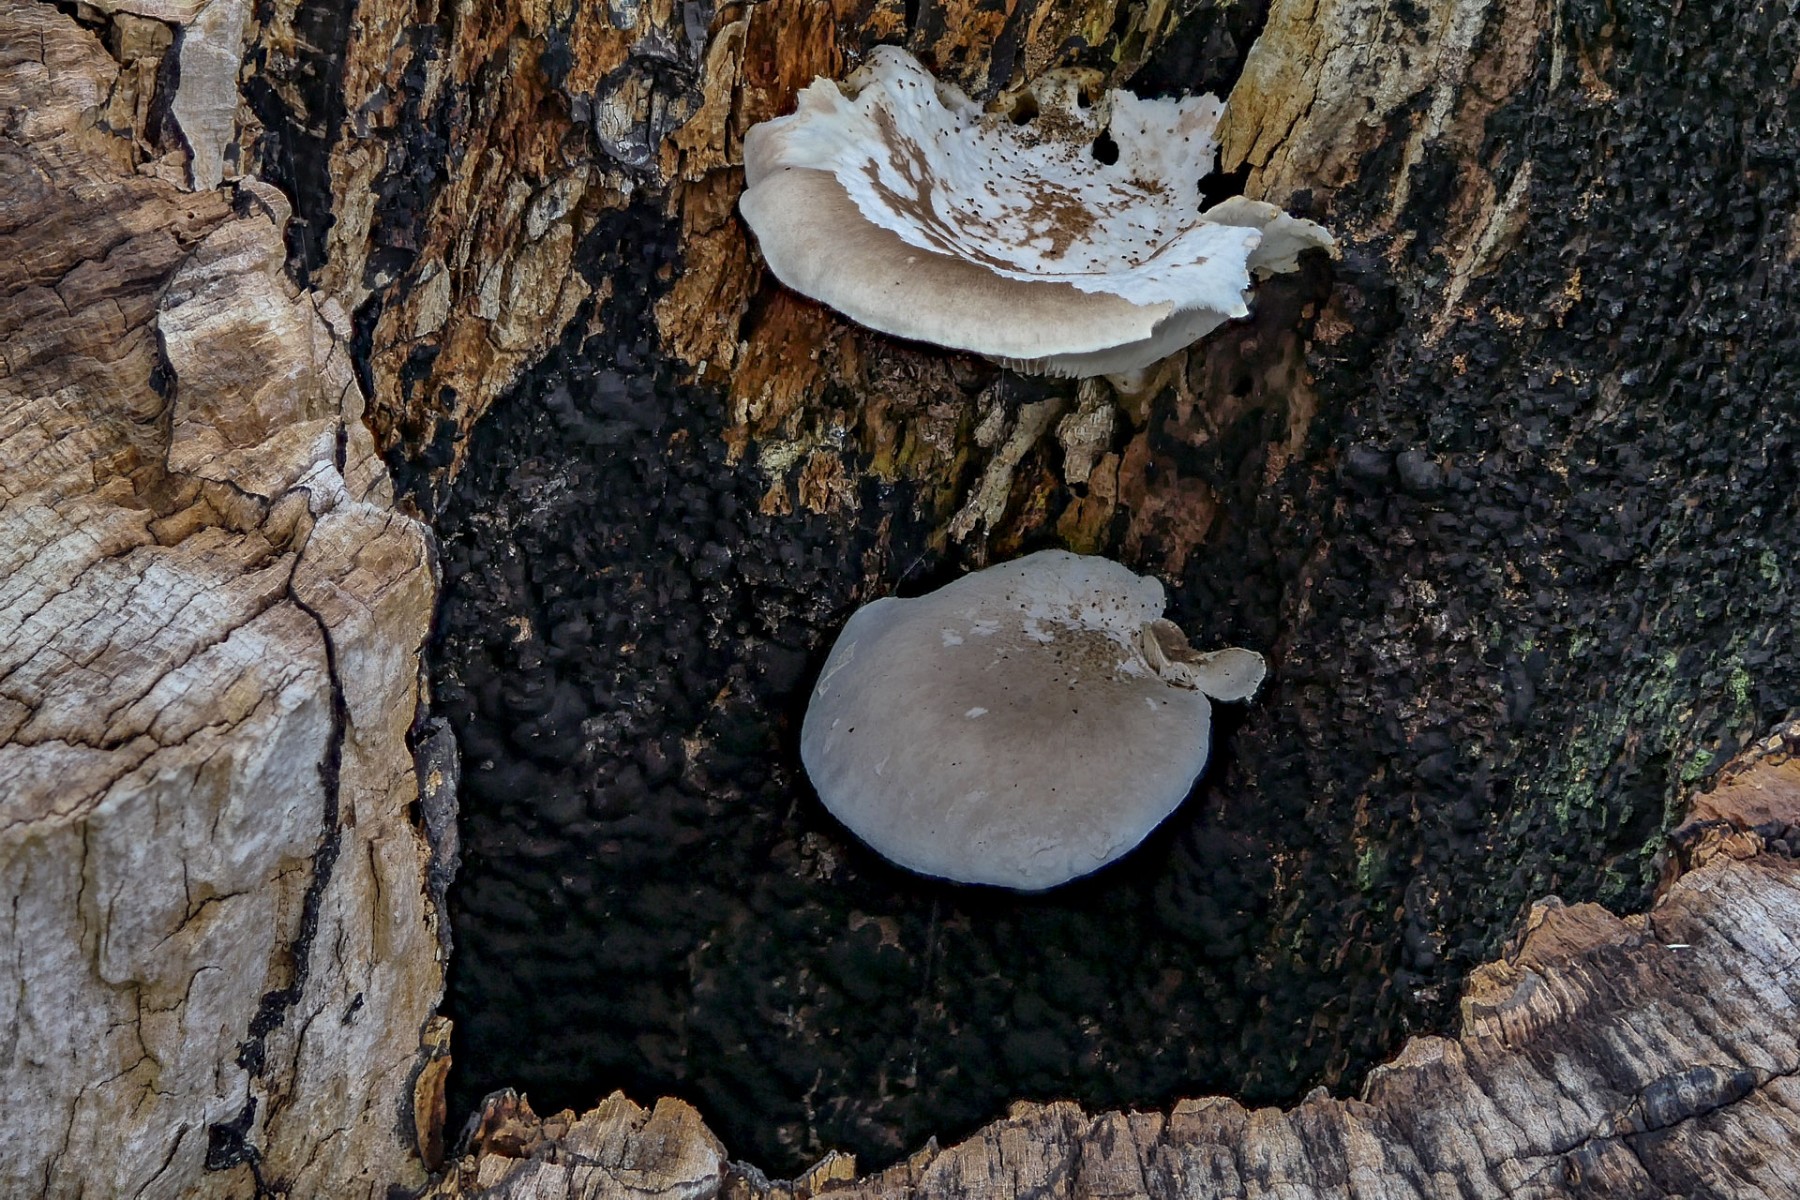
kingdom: Fungi
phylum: Basidiomycota
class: Agaricomycetes
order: Agaricales
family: Pleurotaceae
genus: Pleurotus
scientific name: Pleurotus dryinus
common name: korkagtig østershat
